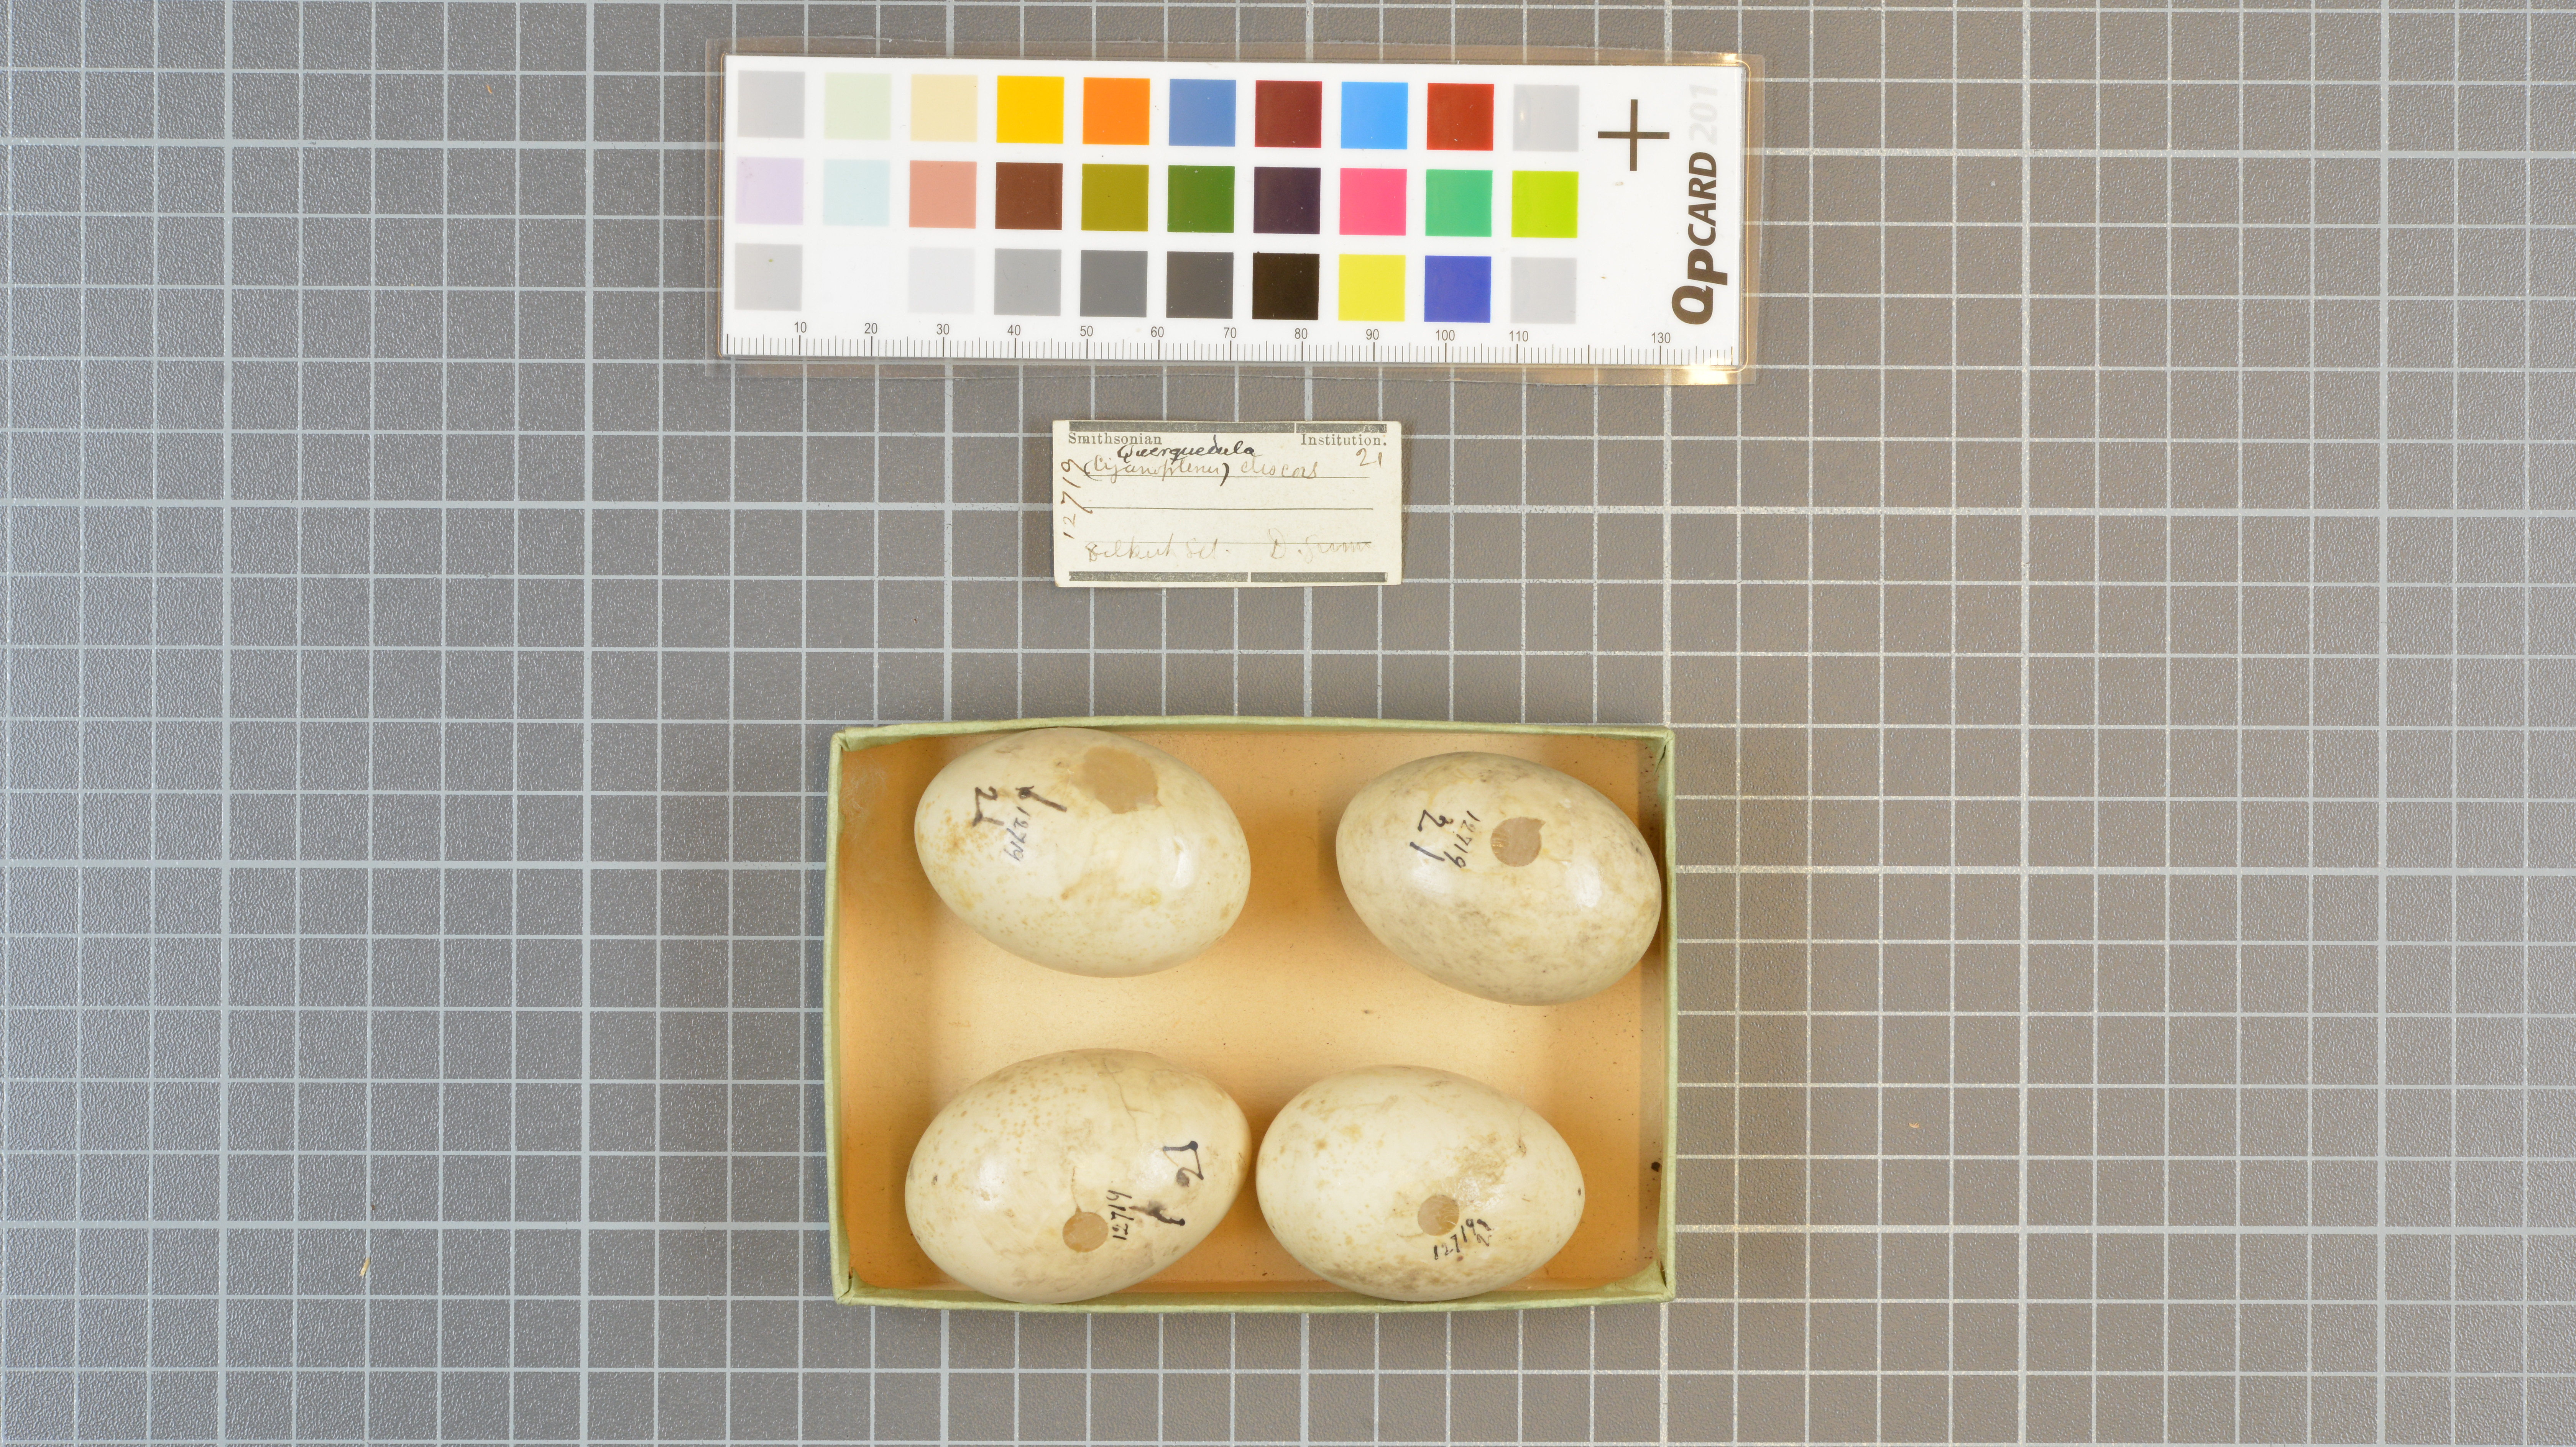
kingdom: Animalia
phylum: Chordata
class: Aves
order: Anseriformes
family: Anatidae
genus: Spatula
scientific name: Spatula discors
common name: Blue-winged teal
